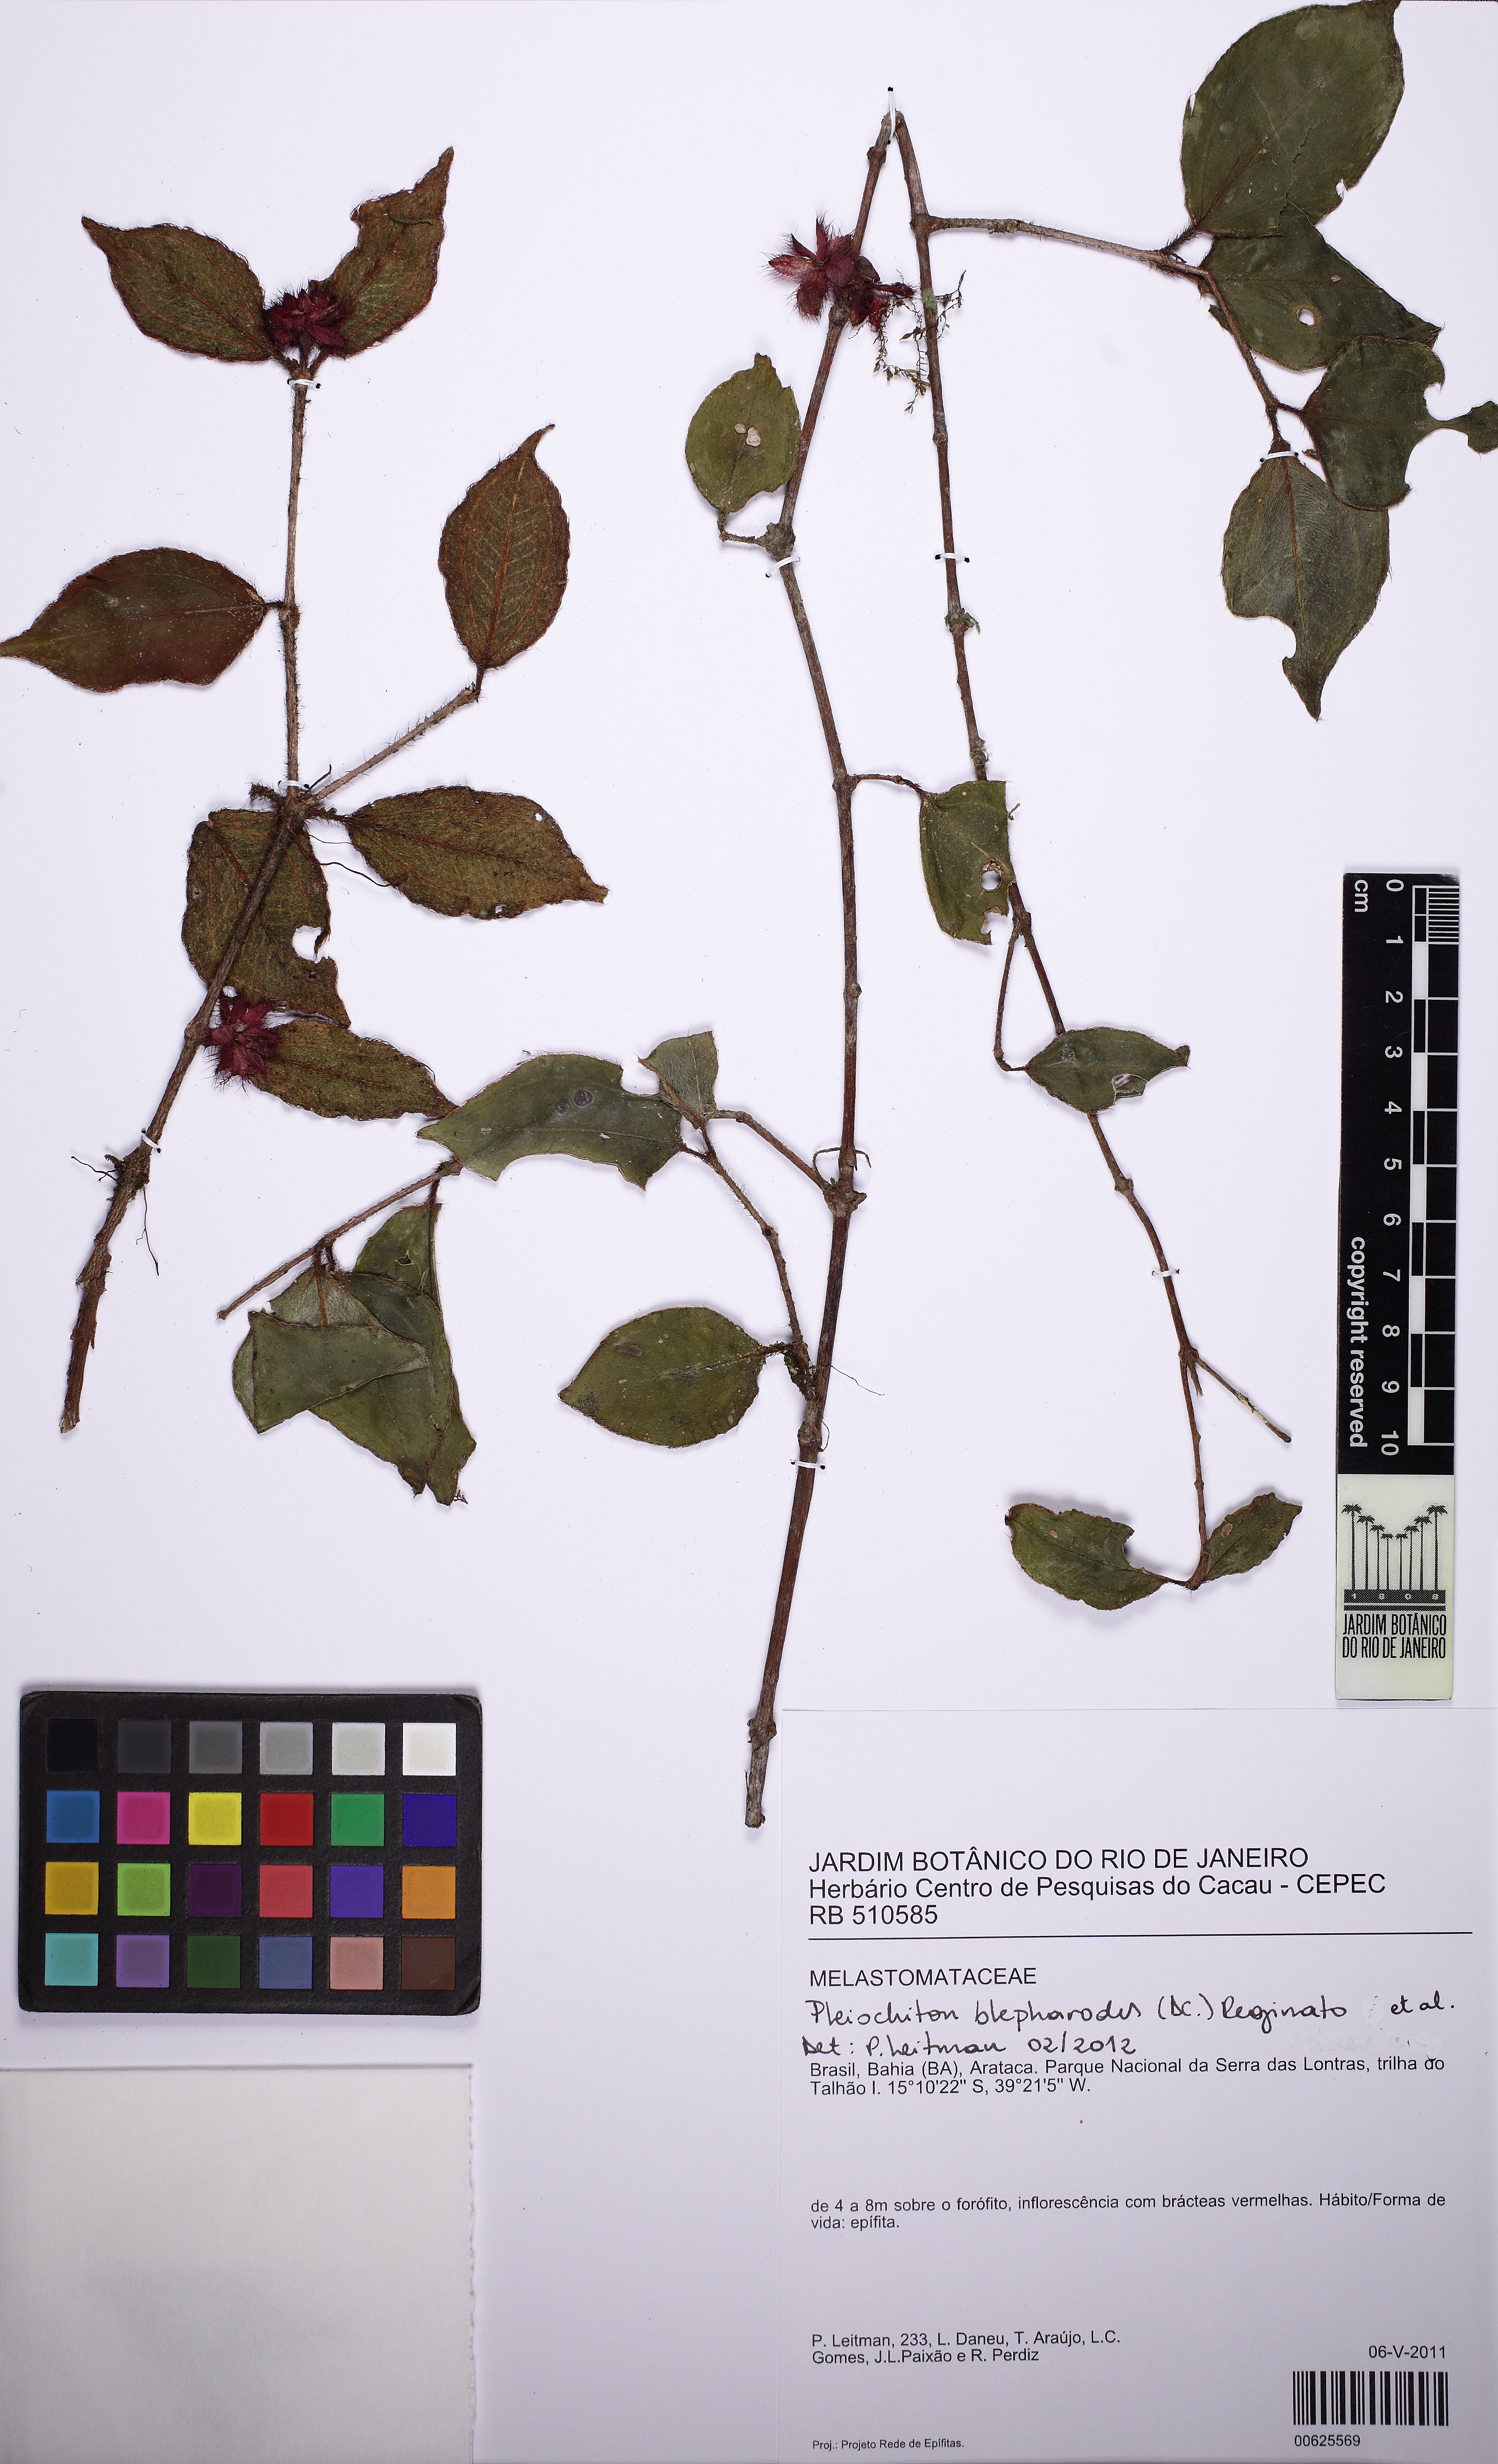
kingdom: Plantae
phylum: Tracheophyta
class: Magnoliopsida
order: Myrtales
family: Melastomataceae
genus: Miconia
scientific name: Miconia blepharodes
